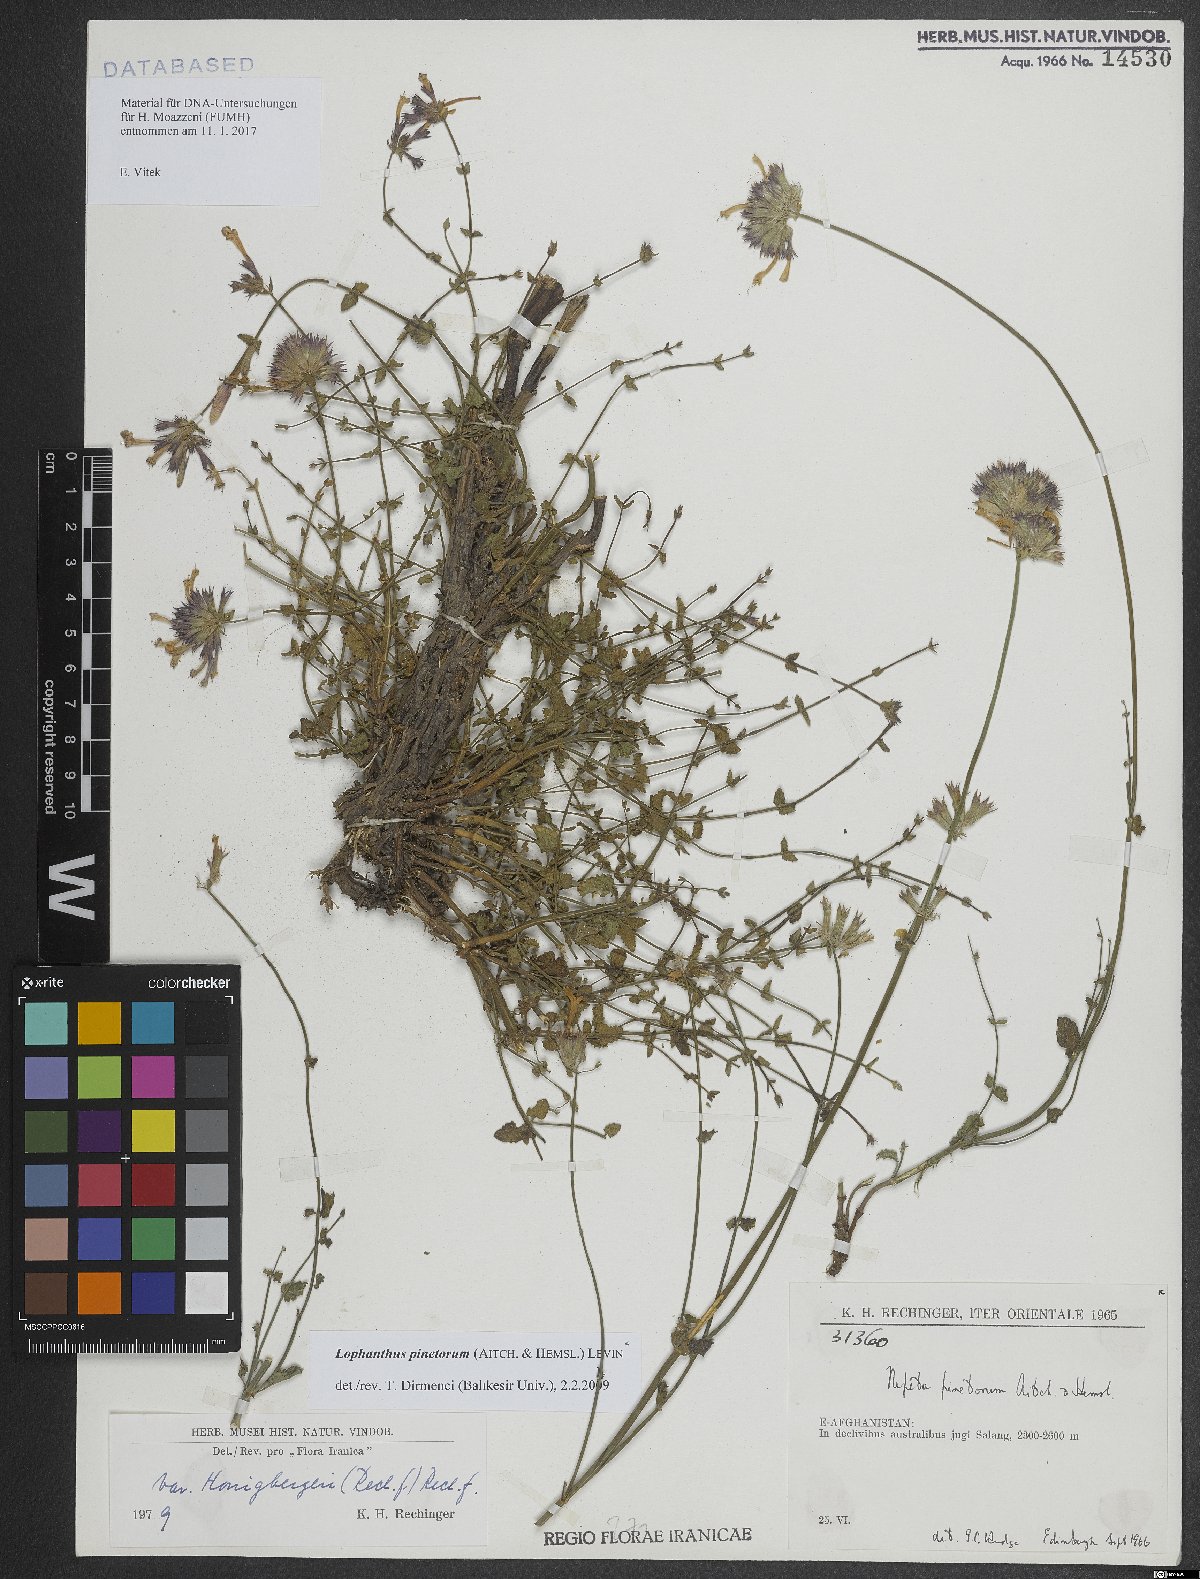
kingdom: Plantae
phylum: Tracheophyta
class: Magnoliopsida
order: Lamiales
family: Lamiaceae
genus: Nepeta
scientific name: Nepeta pinetorum
